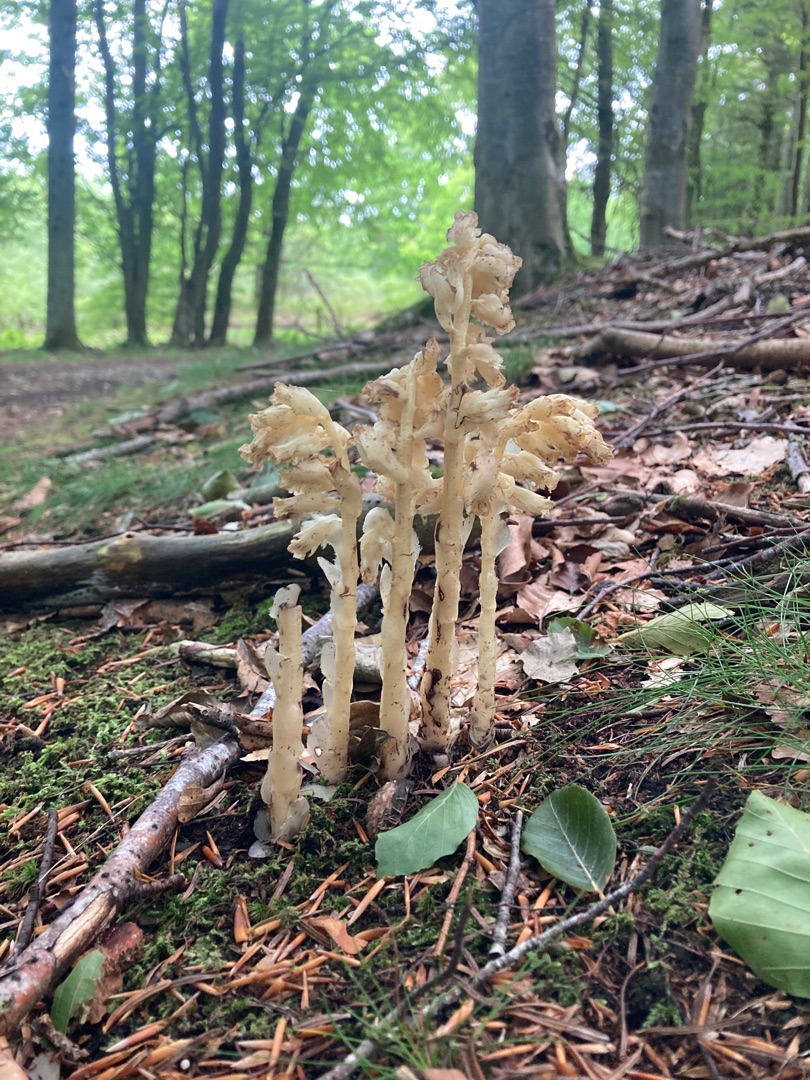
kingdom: Plantae
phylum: Tracheophyta
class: Magnoliopsida
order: Ericales
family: Ericaceae
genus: Hypopitys
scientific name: Hypopitys monotropa
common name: Snylterod
